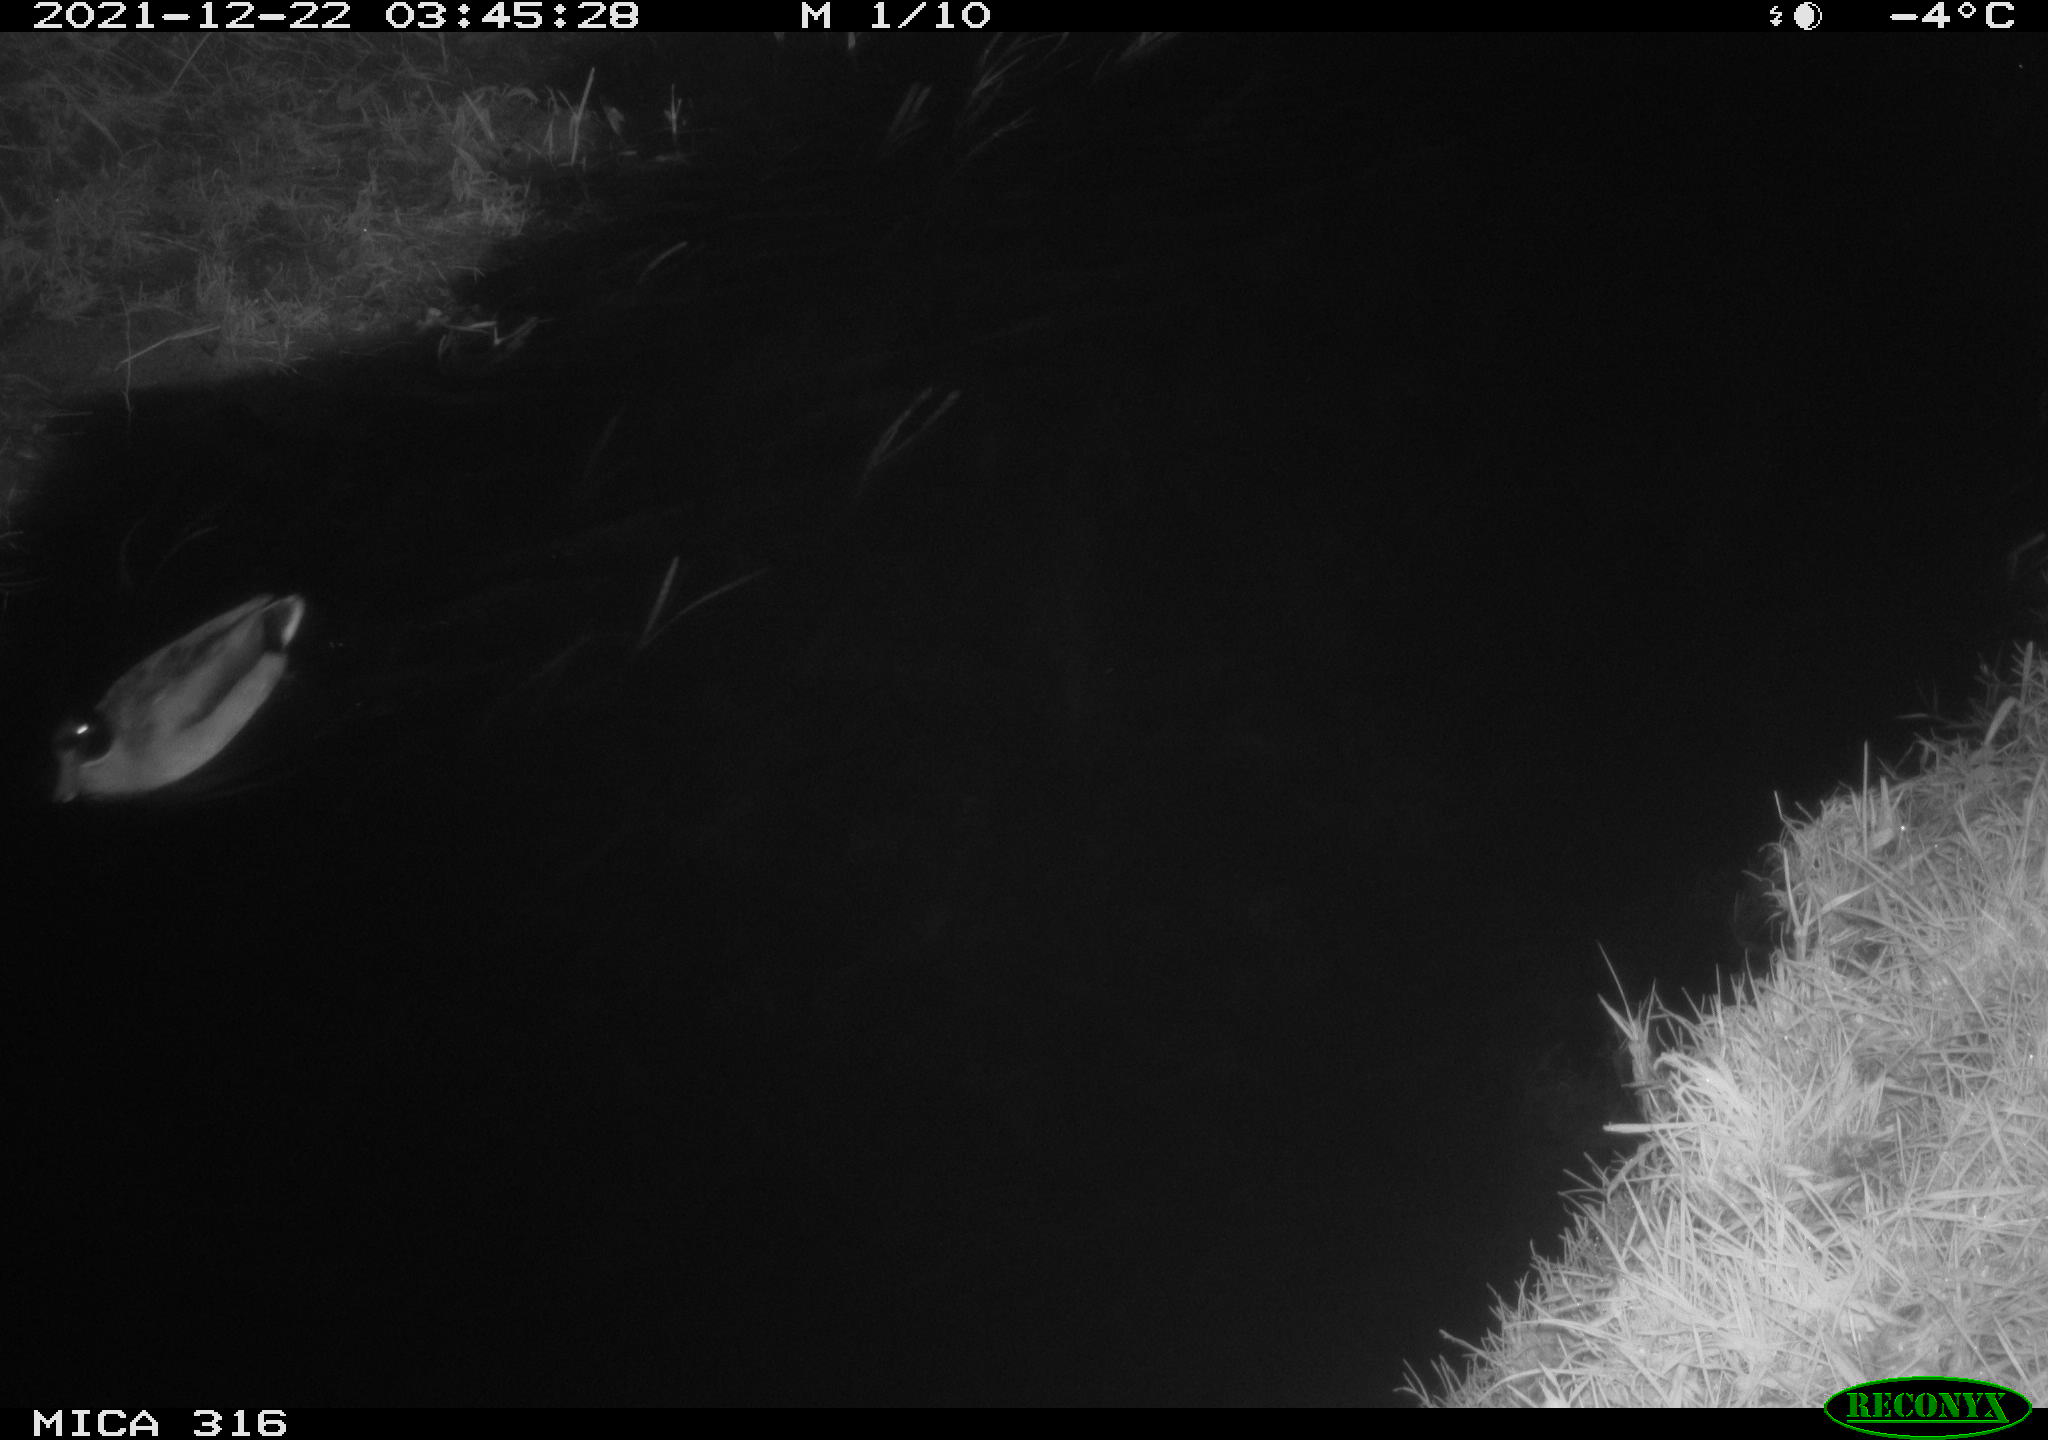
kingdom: Animalia
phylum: Chordata
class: Aves
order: Anseriformes
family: Anatidae
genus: Anas
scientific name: Anas platyrhynchos
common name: Mallard
